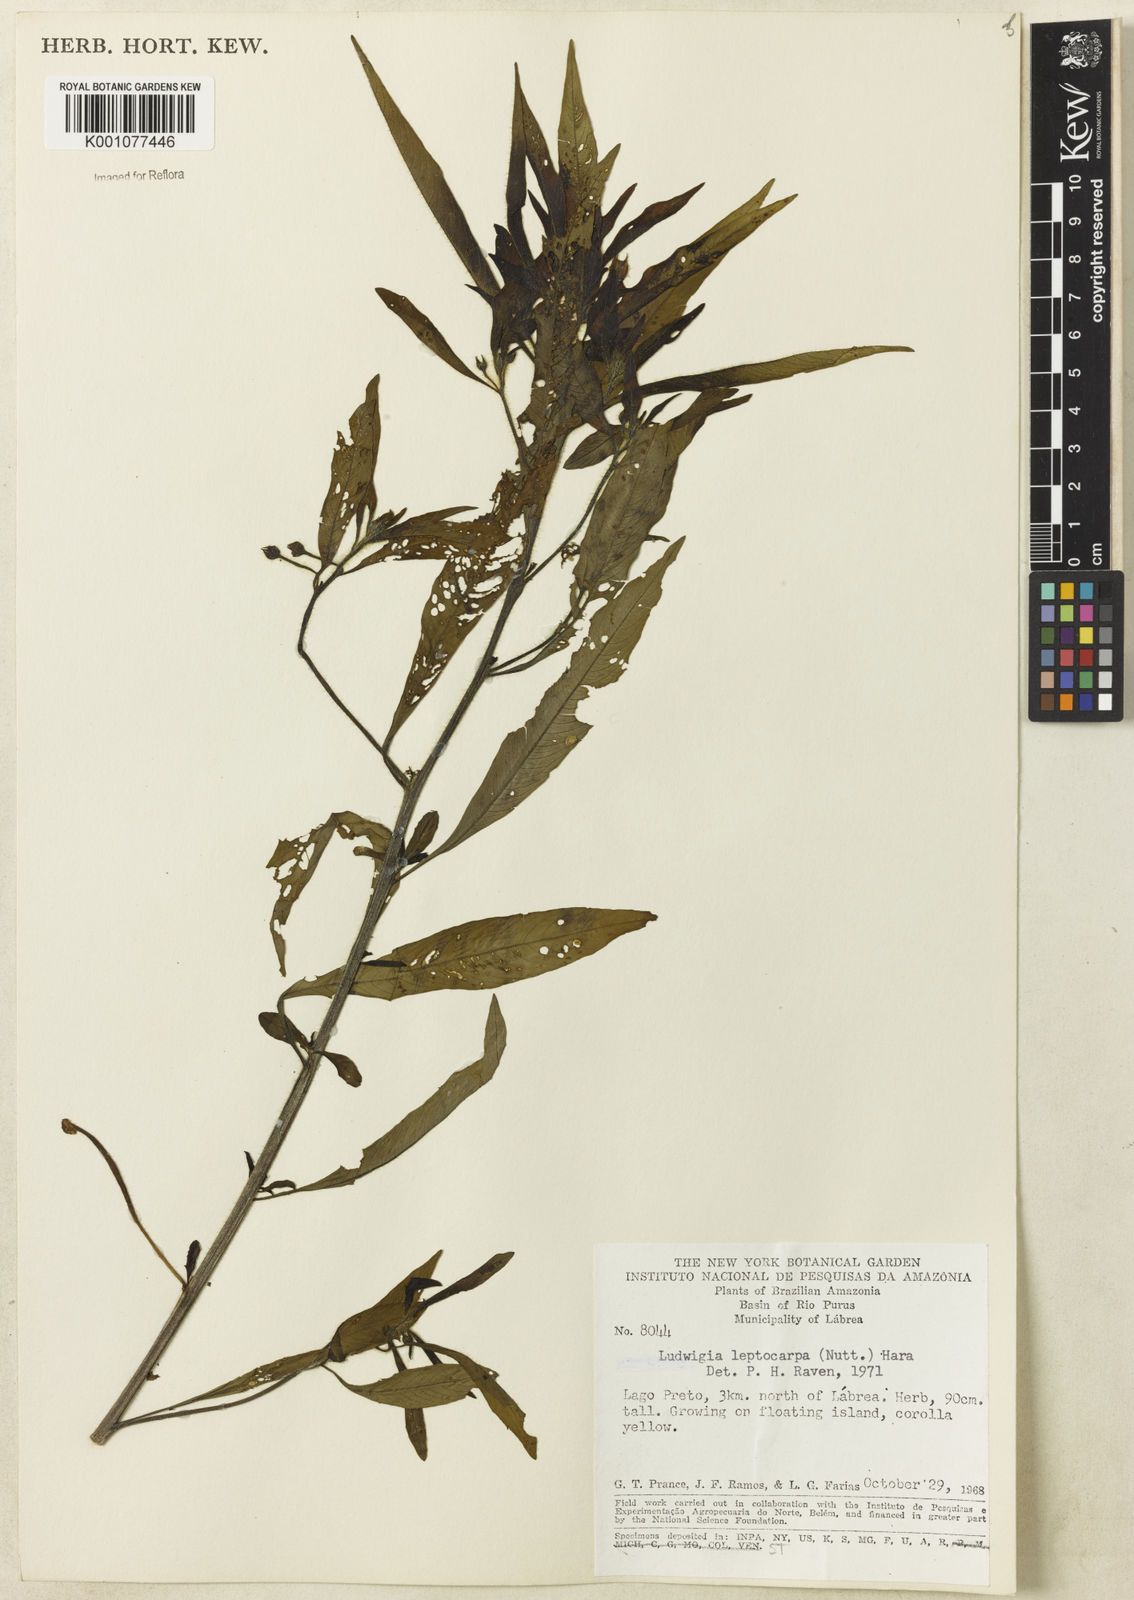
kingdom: Plantae
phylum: Tracheophyta
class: Magnoliopsida
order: Myrtales
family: Onagraceae
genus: Ludwigia
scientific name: Ludwigia leptocarpa
